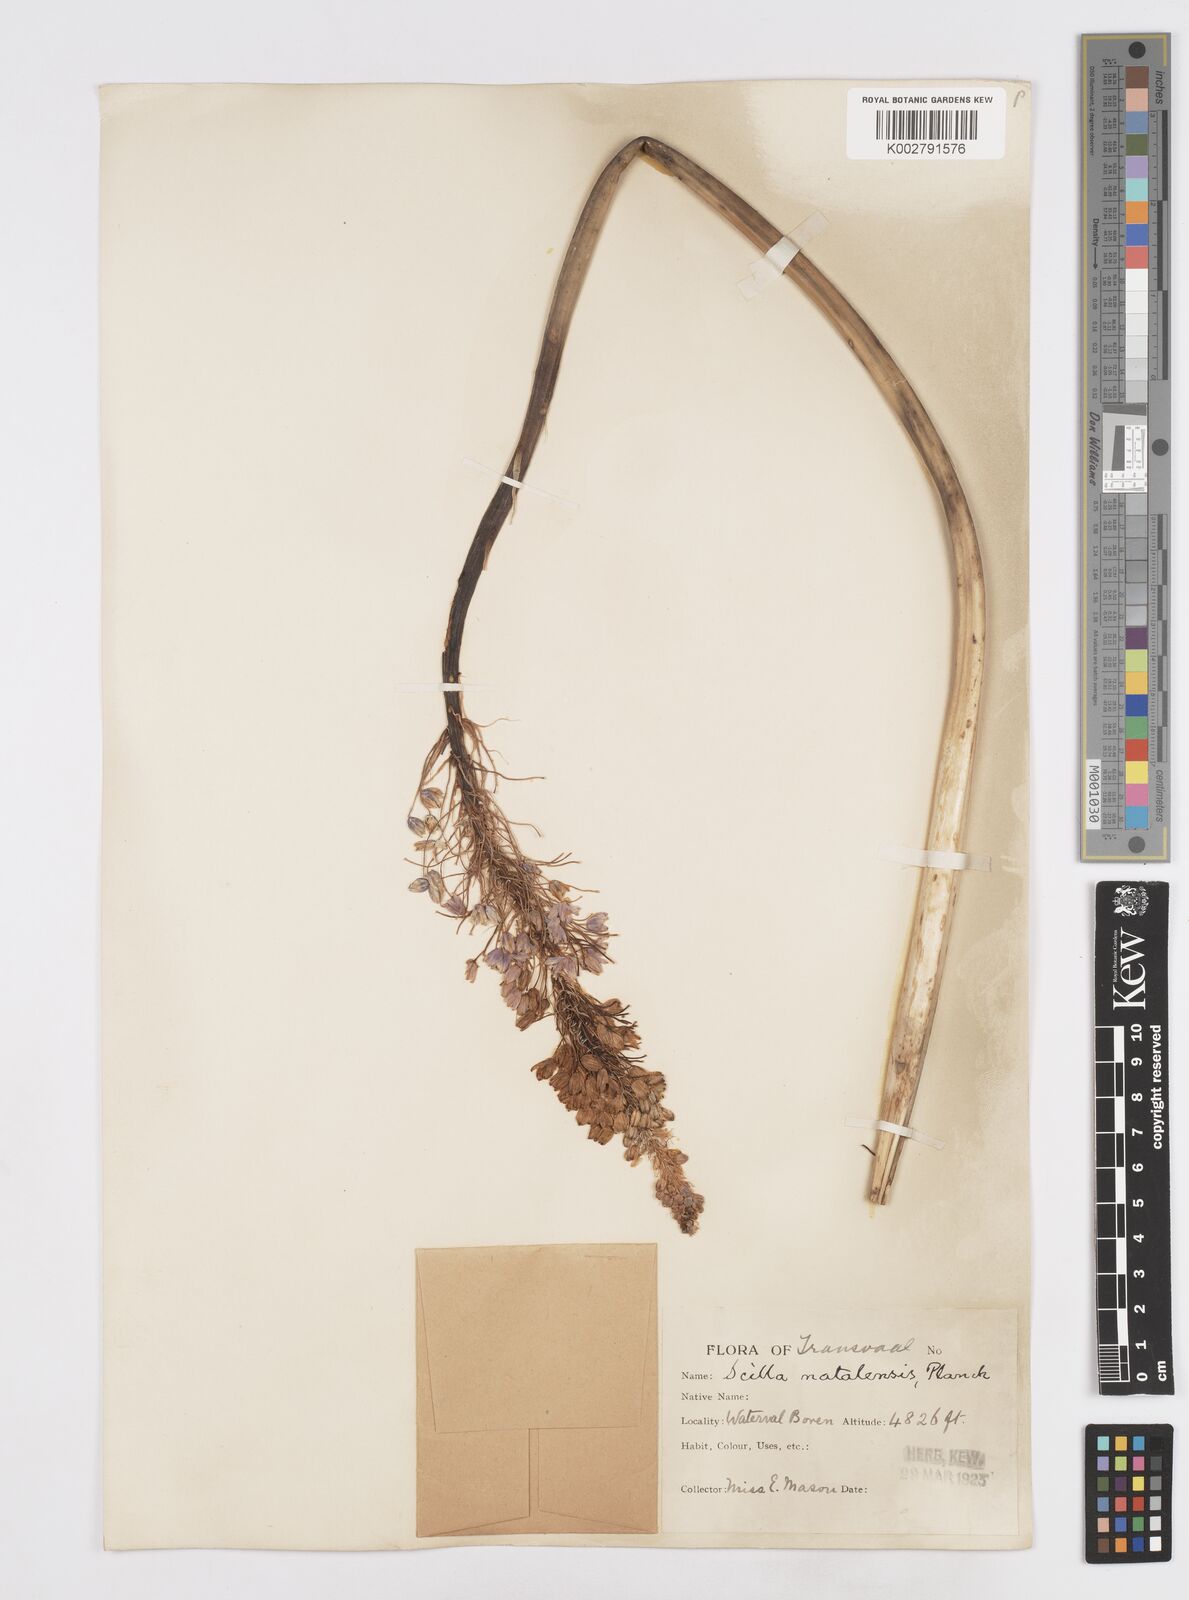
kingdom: Plantae
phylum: Tracheophyta
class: Liliopsida
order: Asparagales
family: Asparagaceae
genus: Merwilla
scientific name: Merwilla plumbea
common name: Blue-squill
